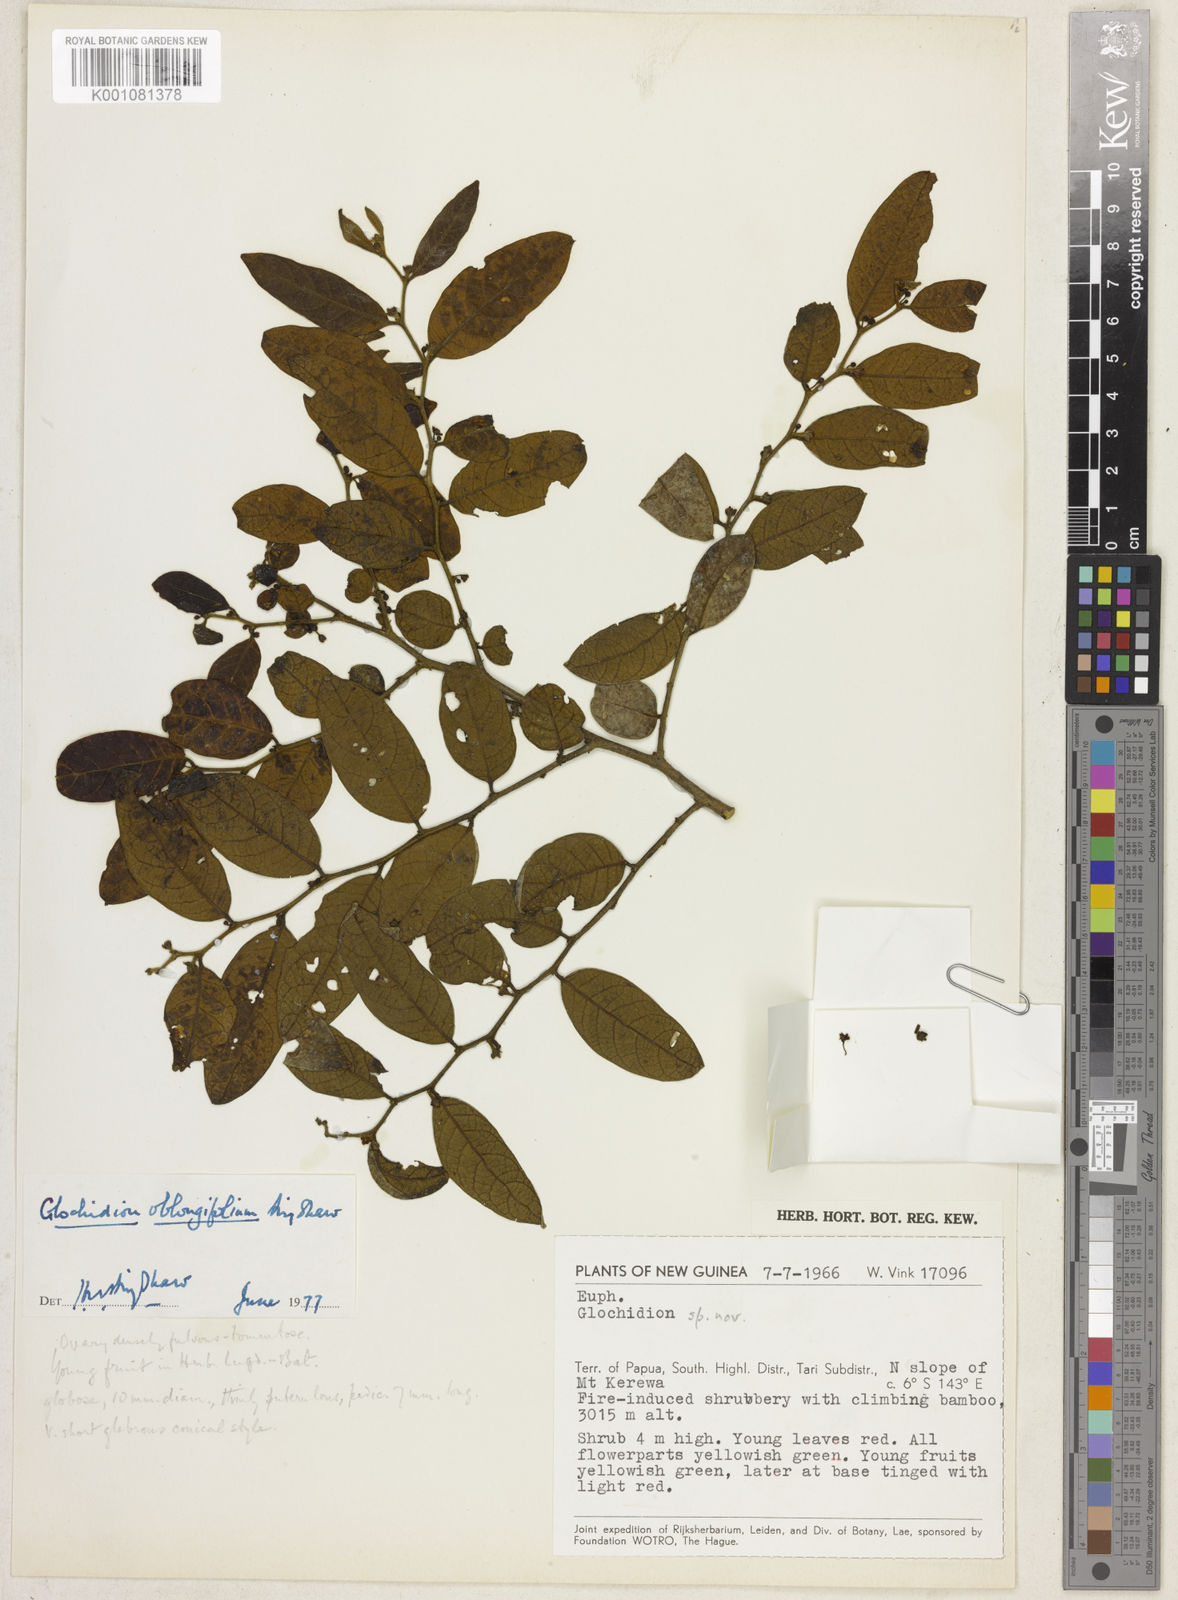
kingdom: Plantae
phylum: Tracheophyta
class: Magnoliopsida
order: Malpighiales
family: Phyllanthaceae
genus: Glochidion
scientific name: Glochidion oblongifolium
